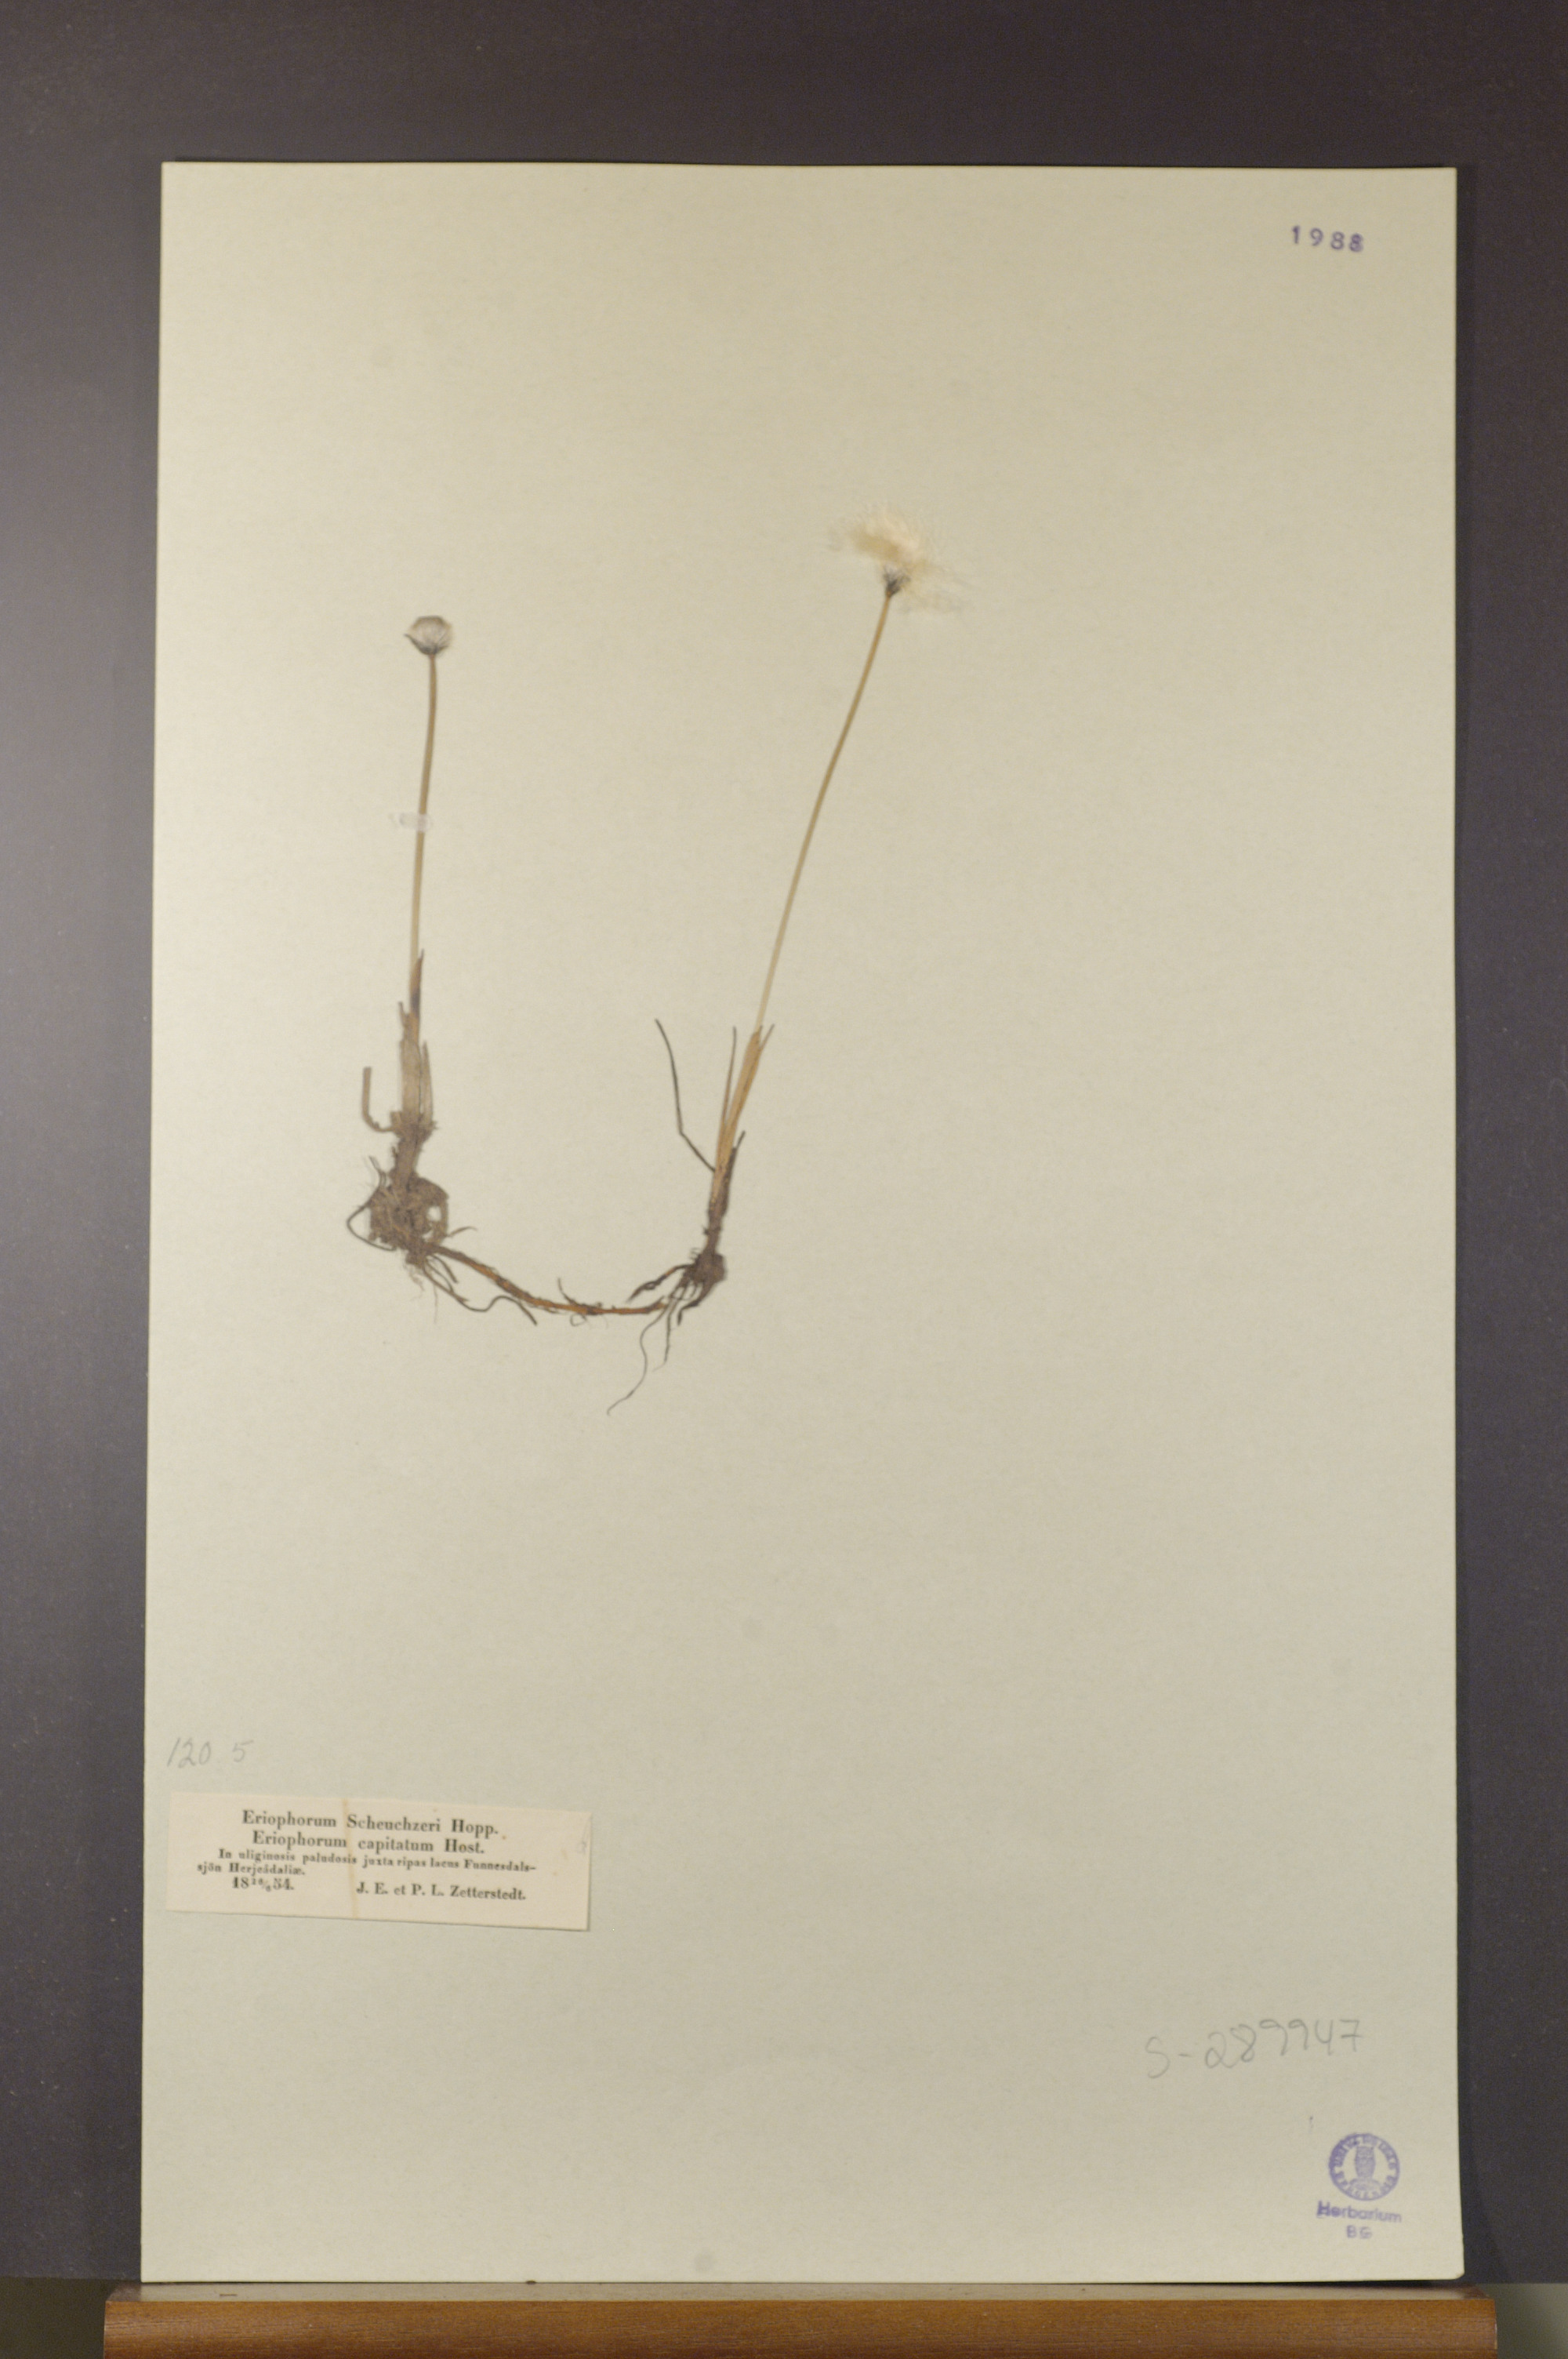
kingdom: Plantae
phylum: Tracheophyta
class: Liliopsida
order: Poales
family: Cyperaceae
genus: Eriophorum
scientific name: Eriophorum scheuchzeri
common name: Scheuchzer's cottongrass
